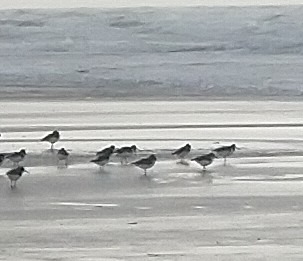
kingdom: Animalia
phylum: Chordata
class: Aves
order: Charadriiformes
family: Haematopodidae
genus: Haematopus
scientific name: Haematopus ostralegus
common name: Strandskade
